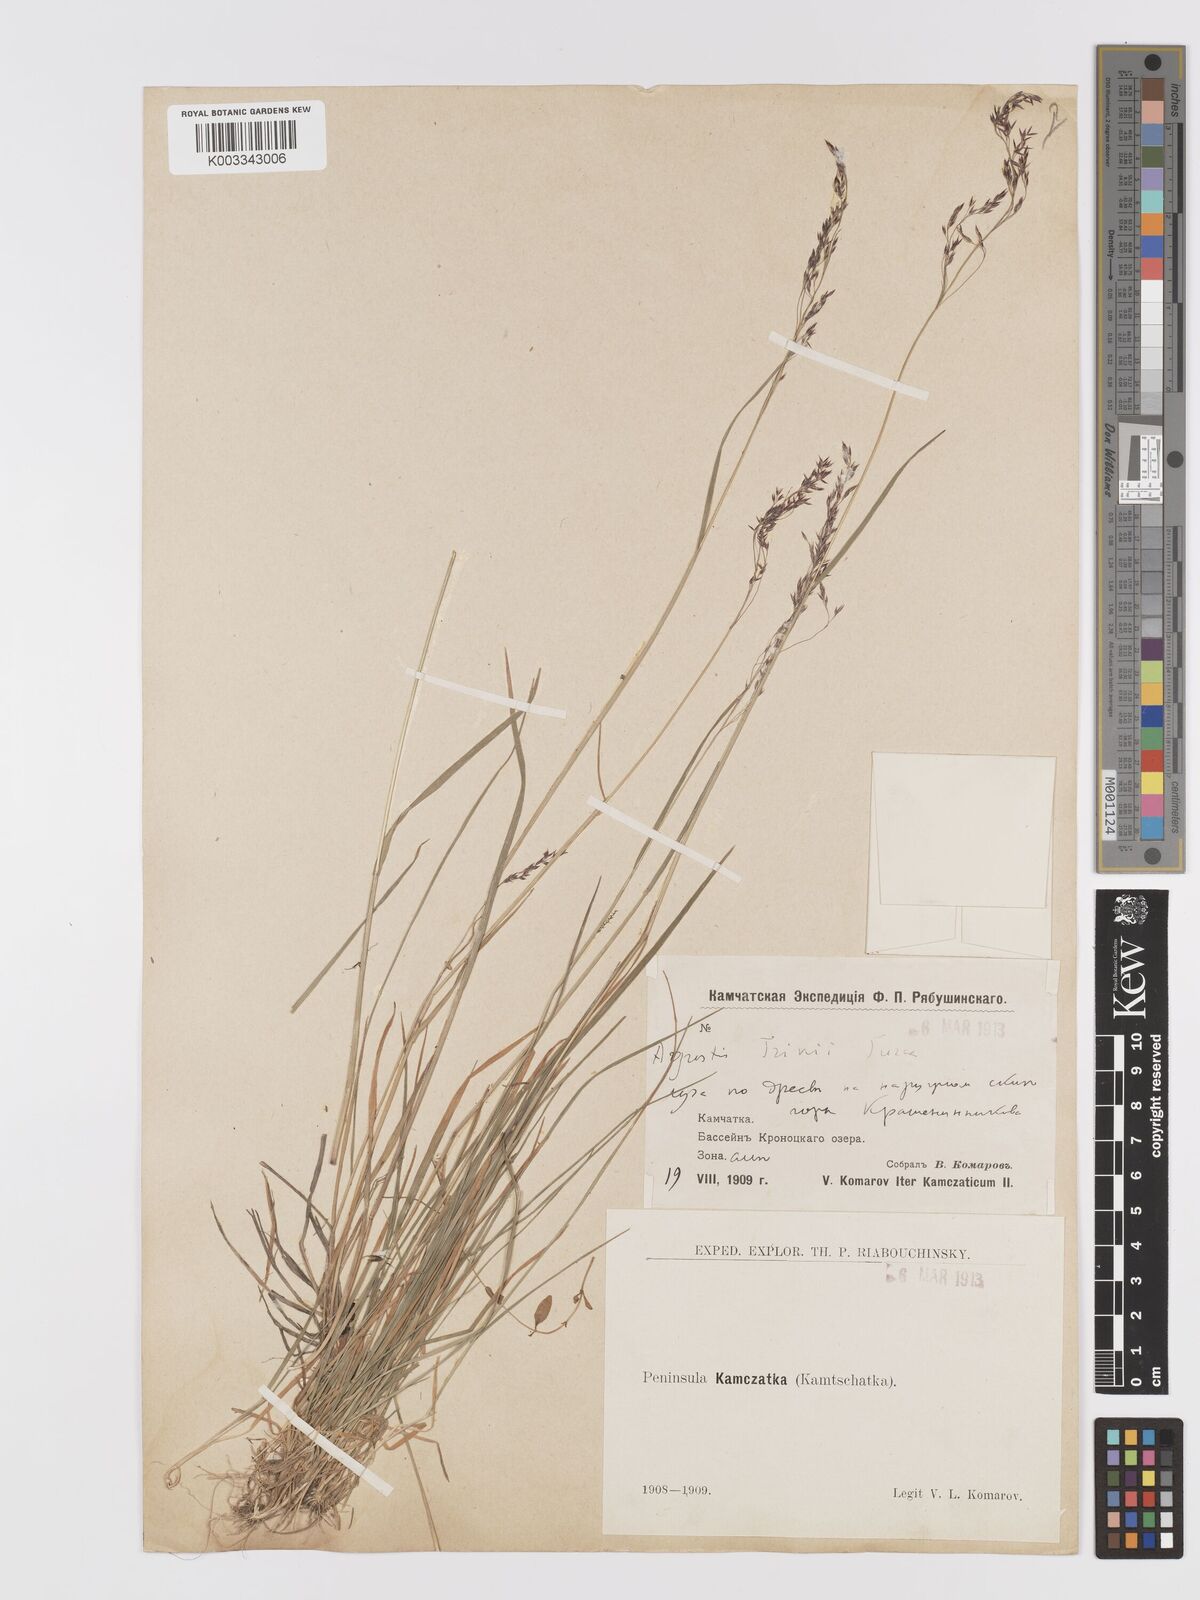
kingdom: Plantae
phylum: Tracheophyta
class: Liliopsida
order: Poales
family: Poaceae
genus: Agrostis
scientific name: Agrostis vinealis
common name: Brown bent
